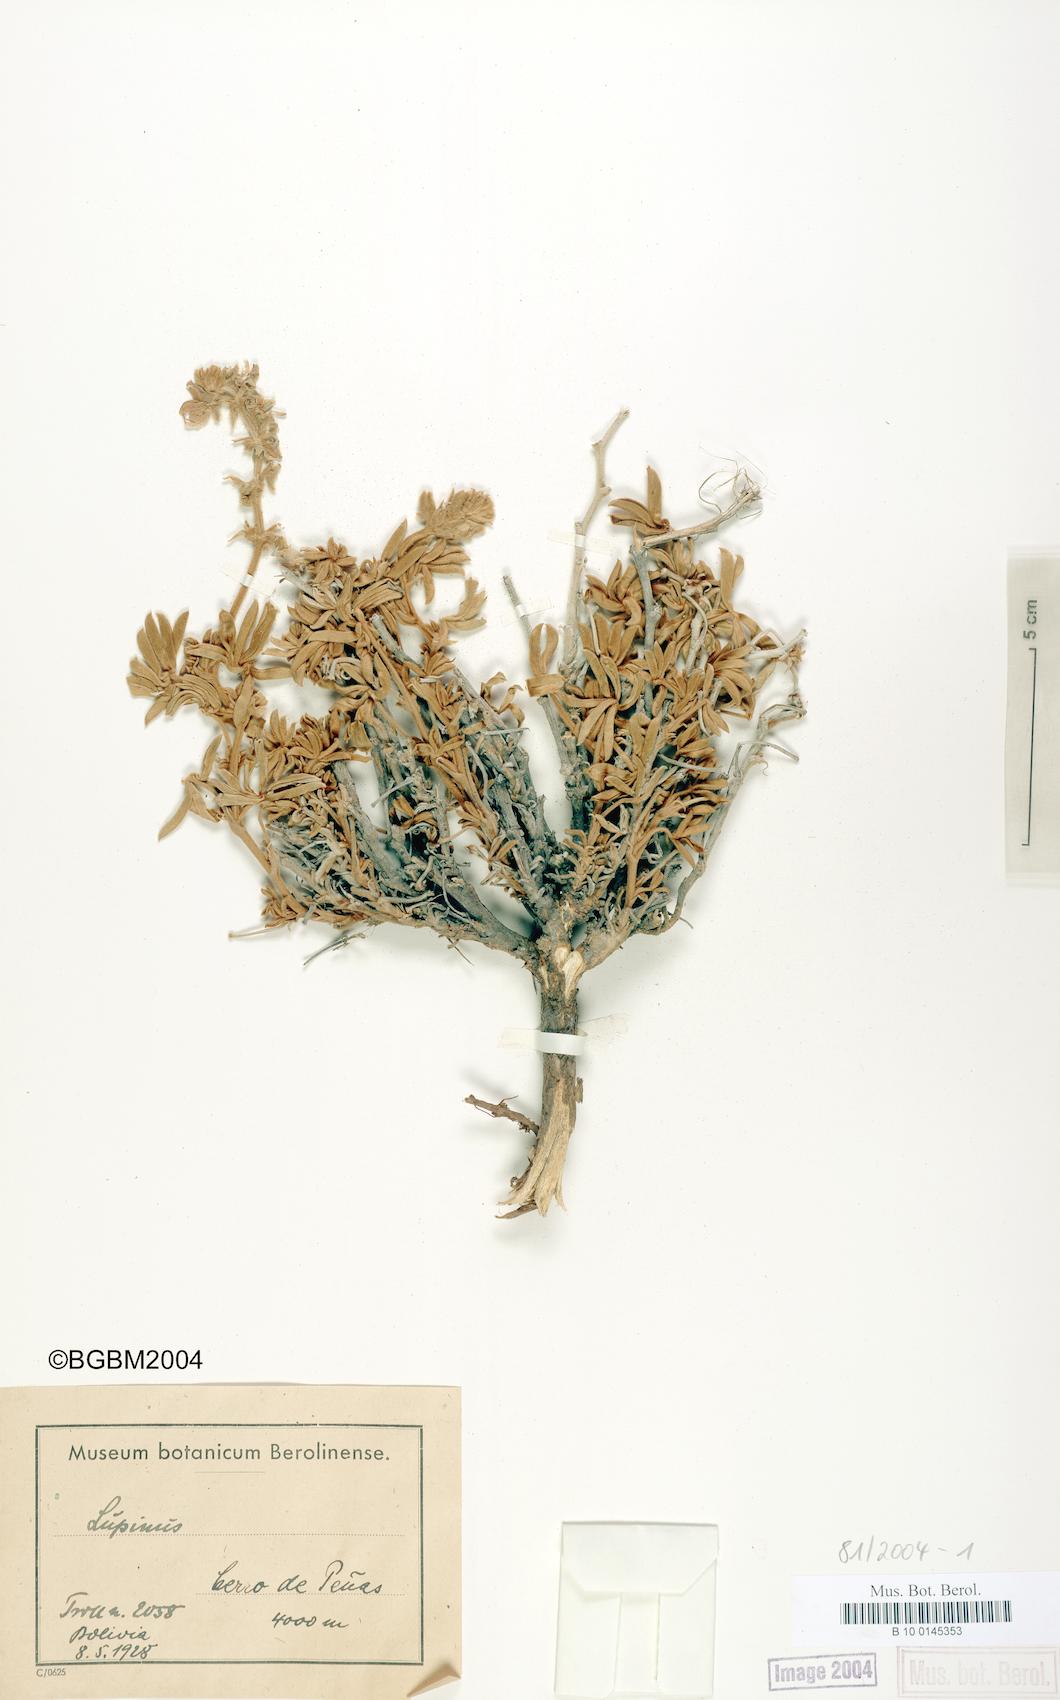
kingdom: Plantae
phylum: Tracheophyta
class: Magnoliopsida
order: Fabales
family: Fabaceae
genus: Lupinus
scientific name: Lupinus
